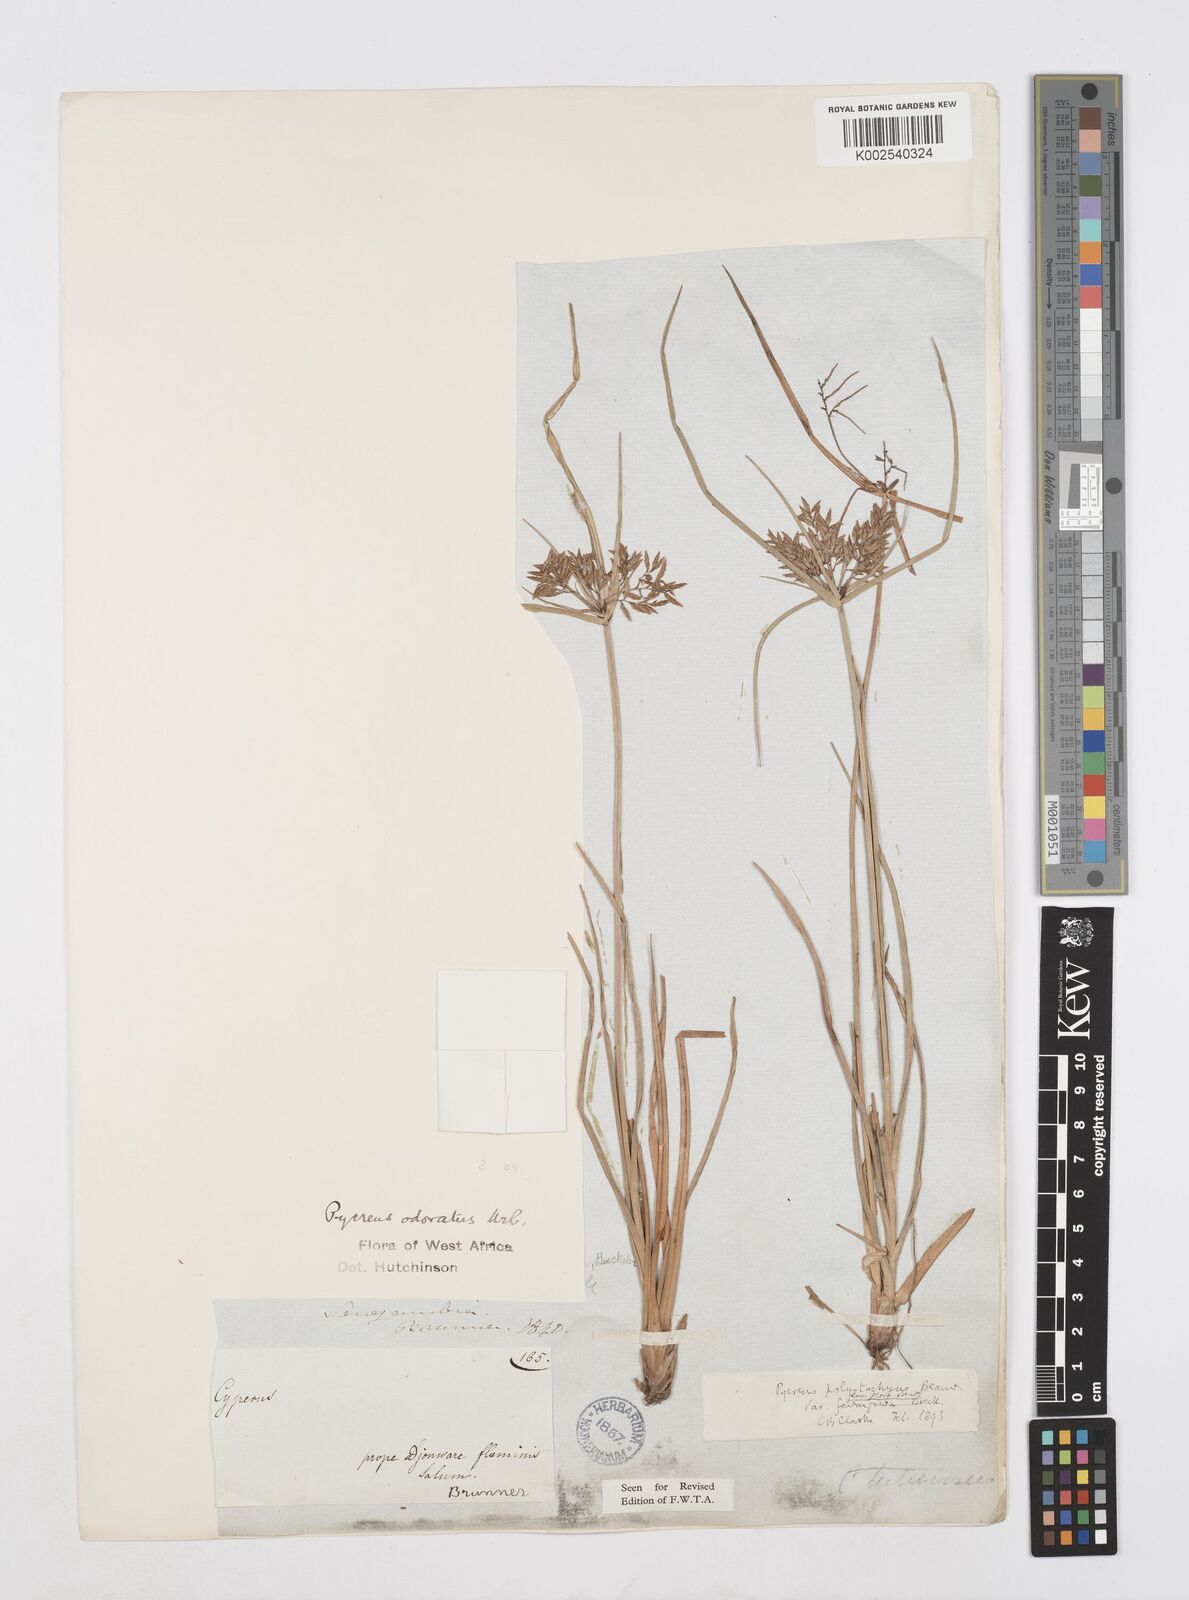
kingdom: Plantae
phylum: Tracheophyta
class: Liliopsida
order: Poales
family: Cyperaceae
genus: Cyperus
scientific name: Cyperus polystachyos
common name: Bunchy flat sedge
